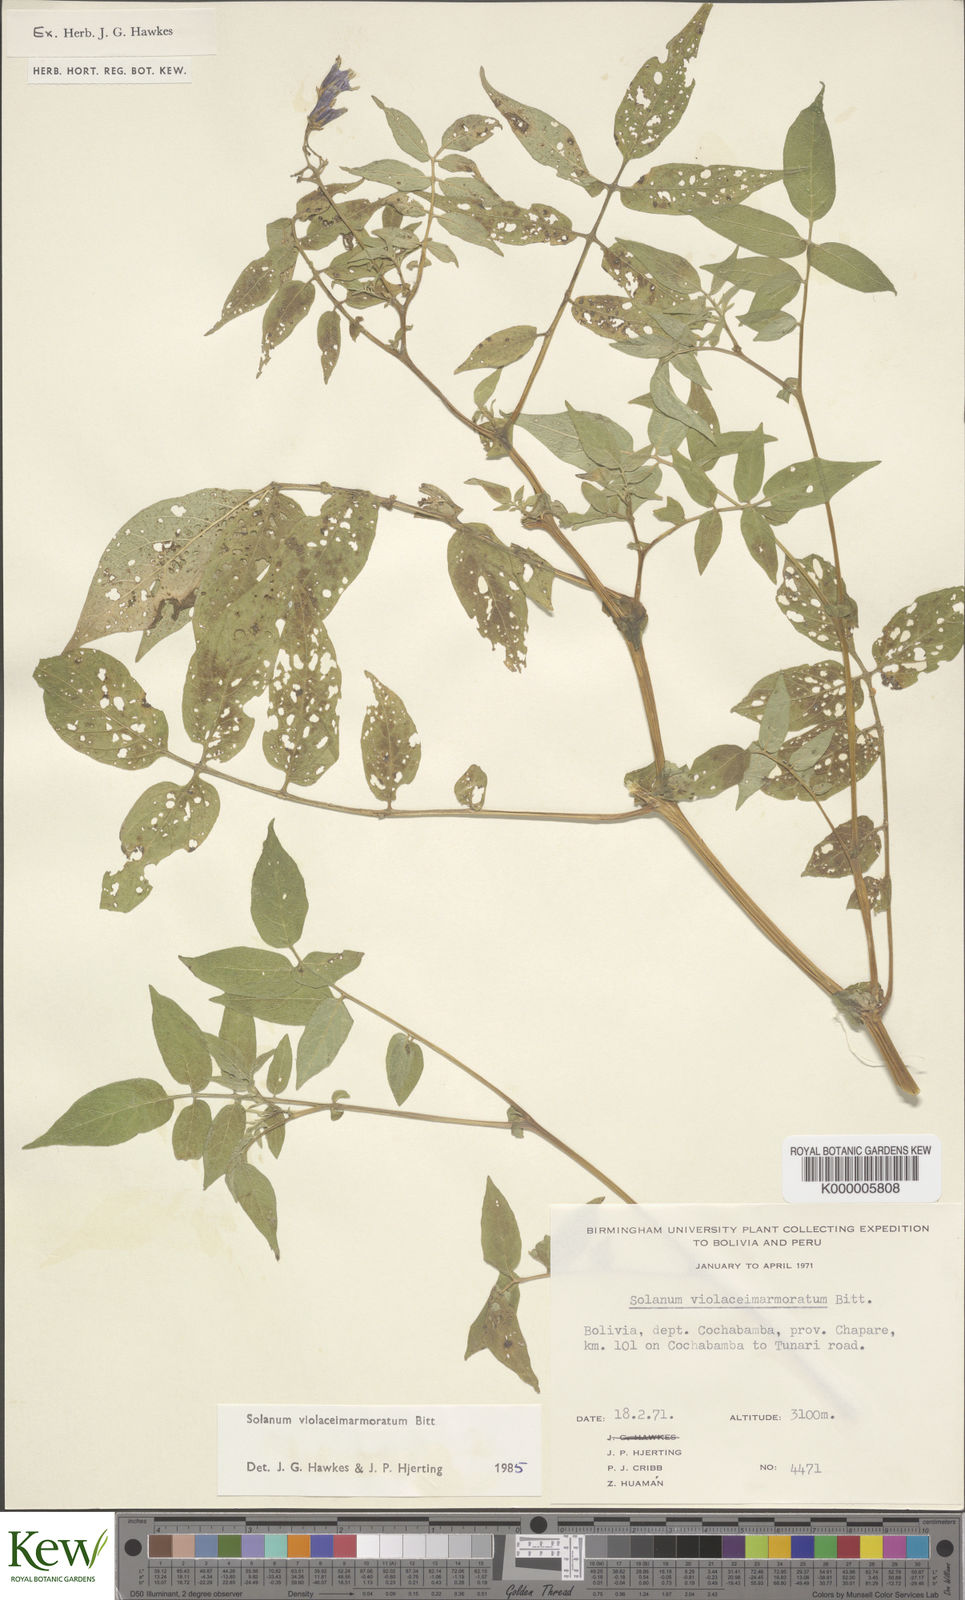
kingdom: Plantae
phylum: Tracheophyta
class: Magnoliopsida
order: Solanales
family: Solanaceae
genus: Solanum
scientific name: Solanum violaceimarmoratum
